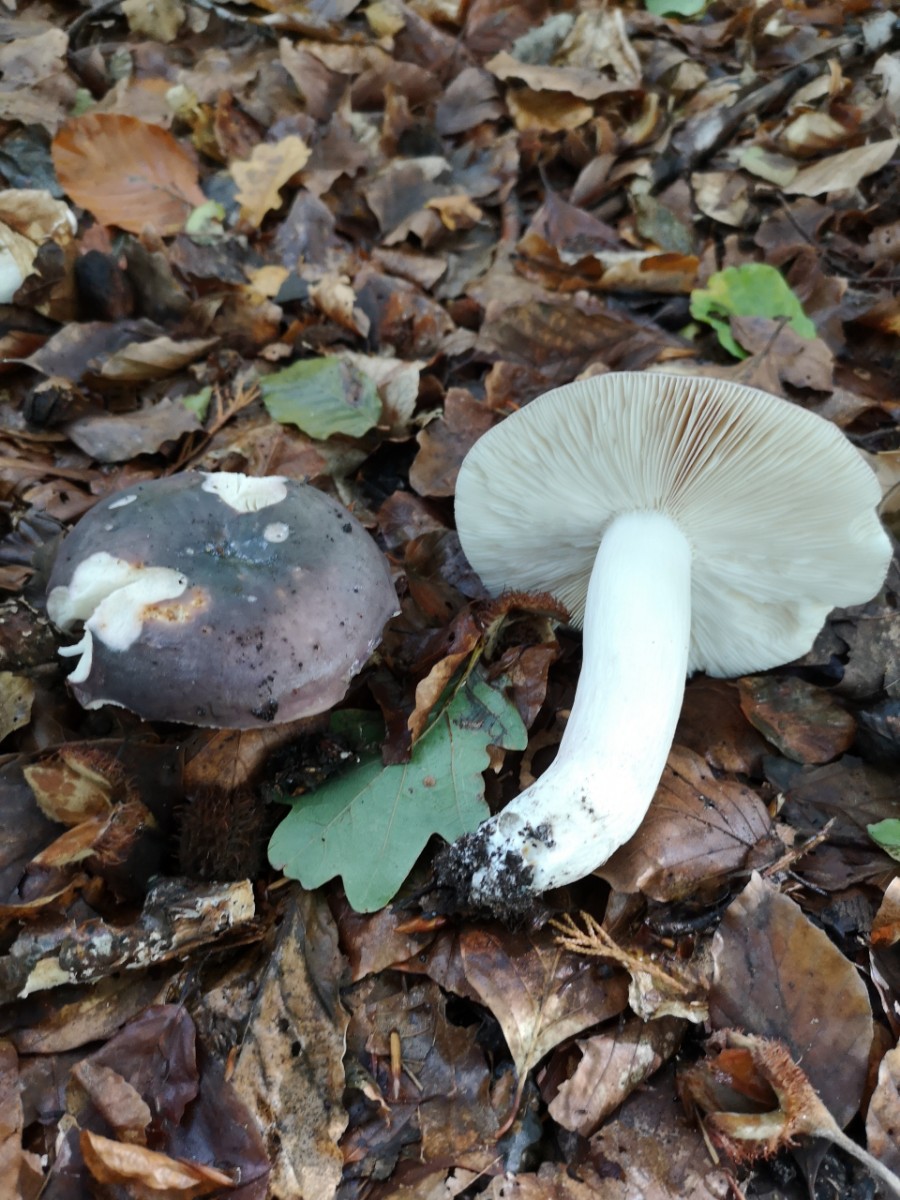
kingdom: Fungi
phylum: Basidiomycota
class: Agaricomycetes
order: Russulales
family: Russulaceae
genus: Russula
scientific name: Russula cyanoxantha
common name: broget skørhat
